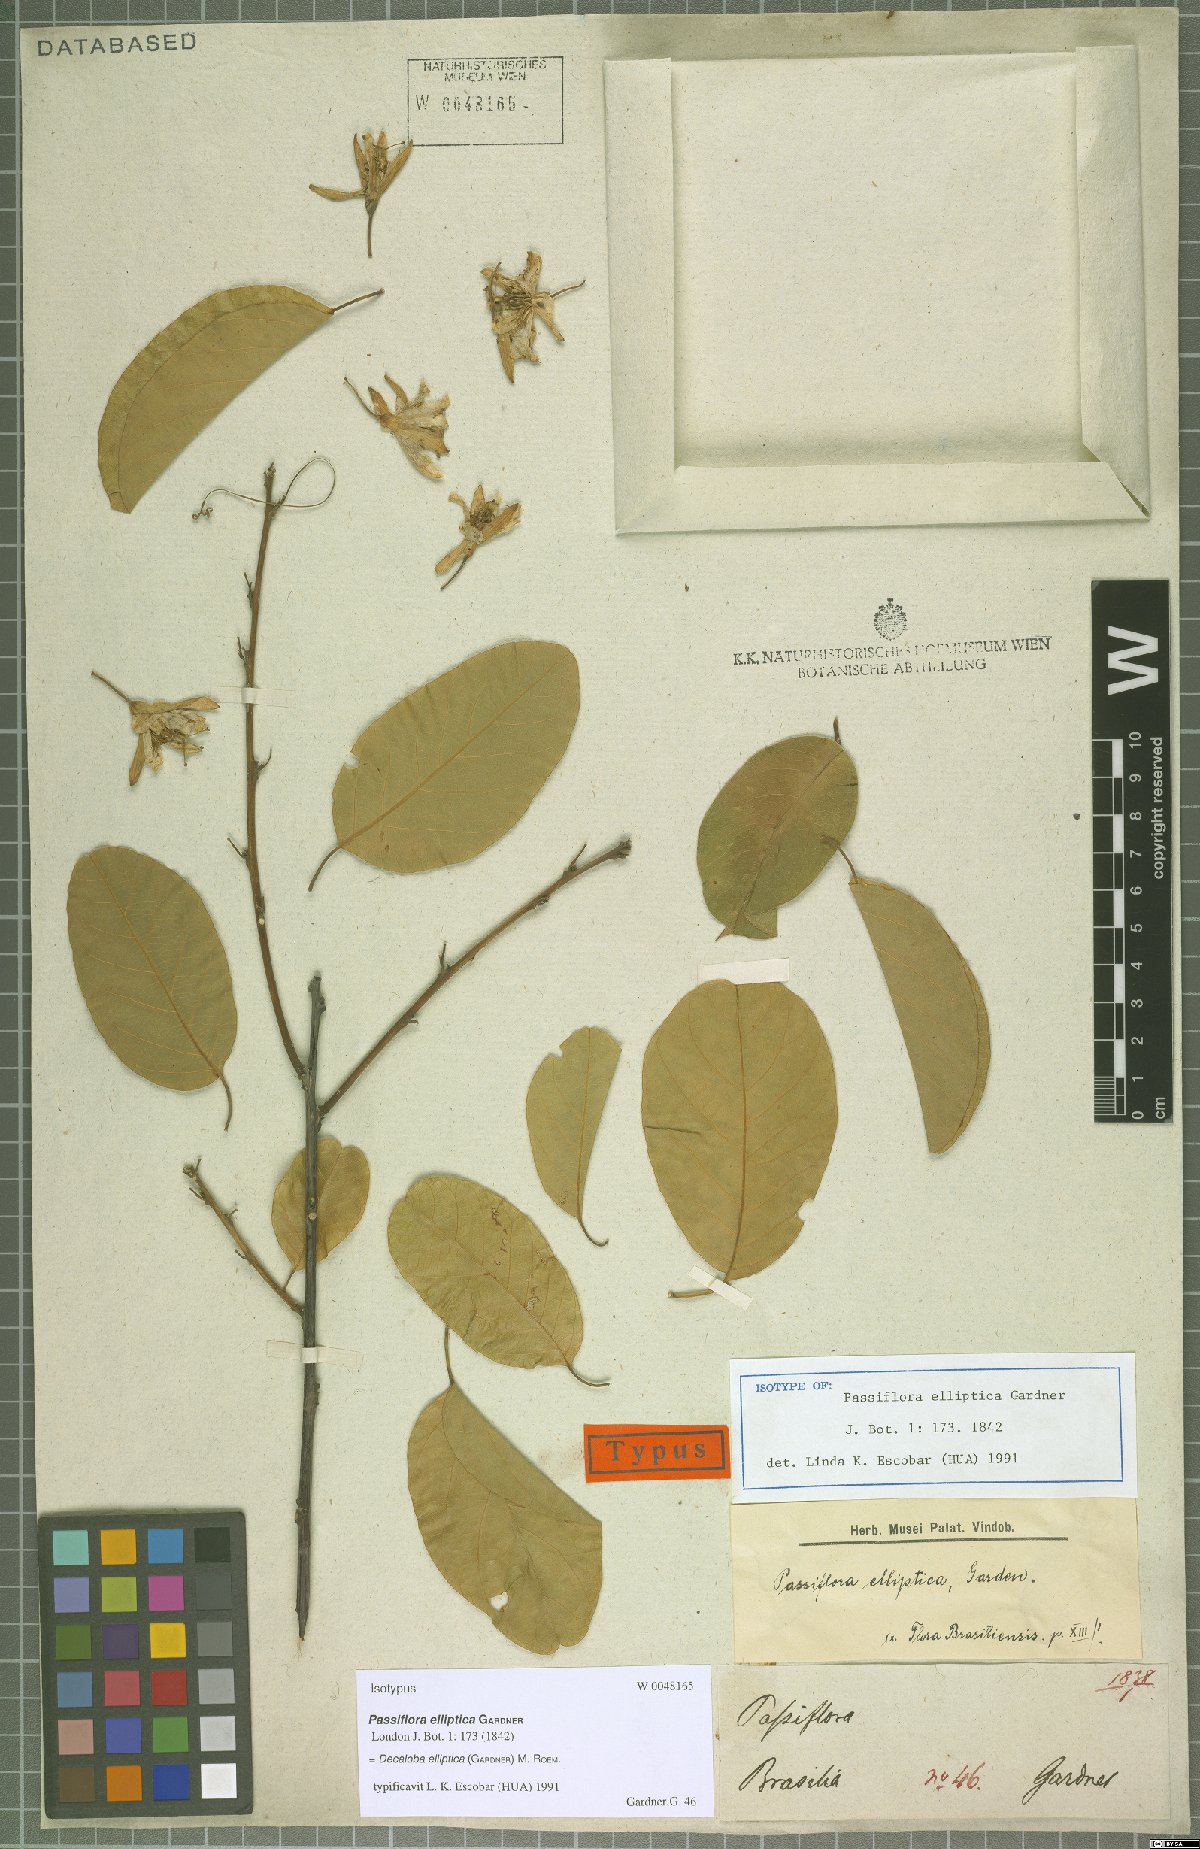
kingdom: Plantae
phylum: Tracheophyta
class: Magnoliopsida
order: Malpighiales
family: Passifloraceae
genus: Passiflora
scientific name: Passiflora elliptica
